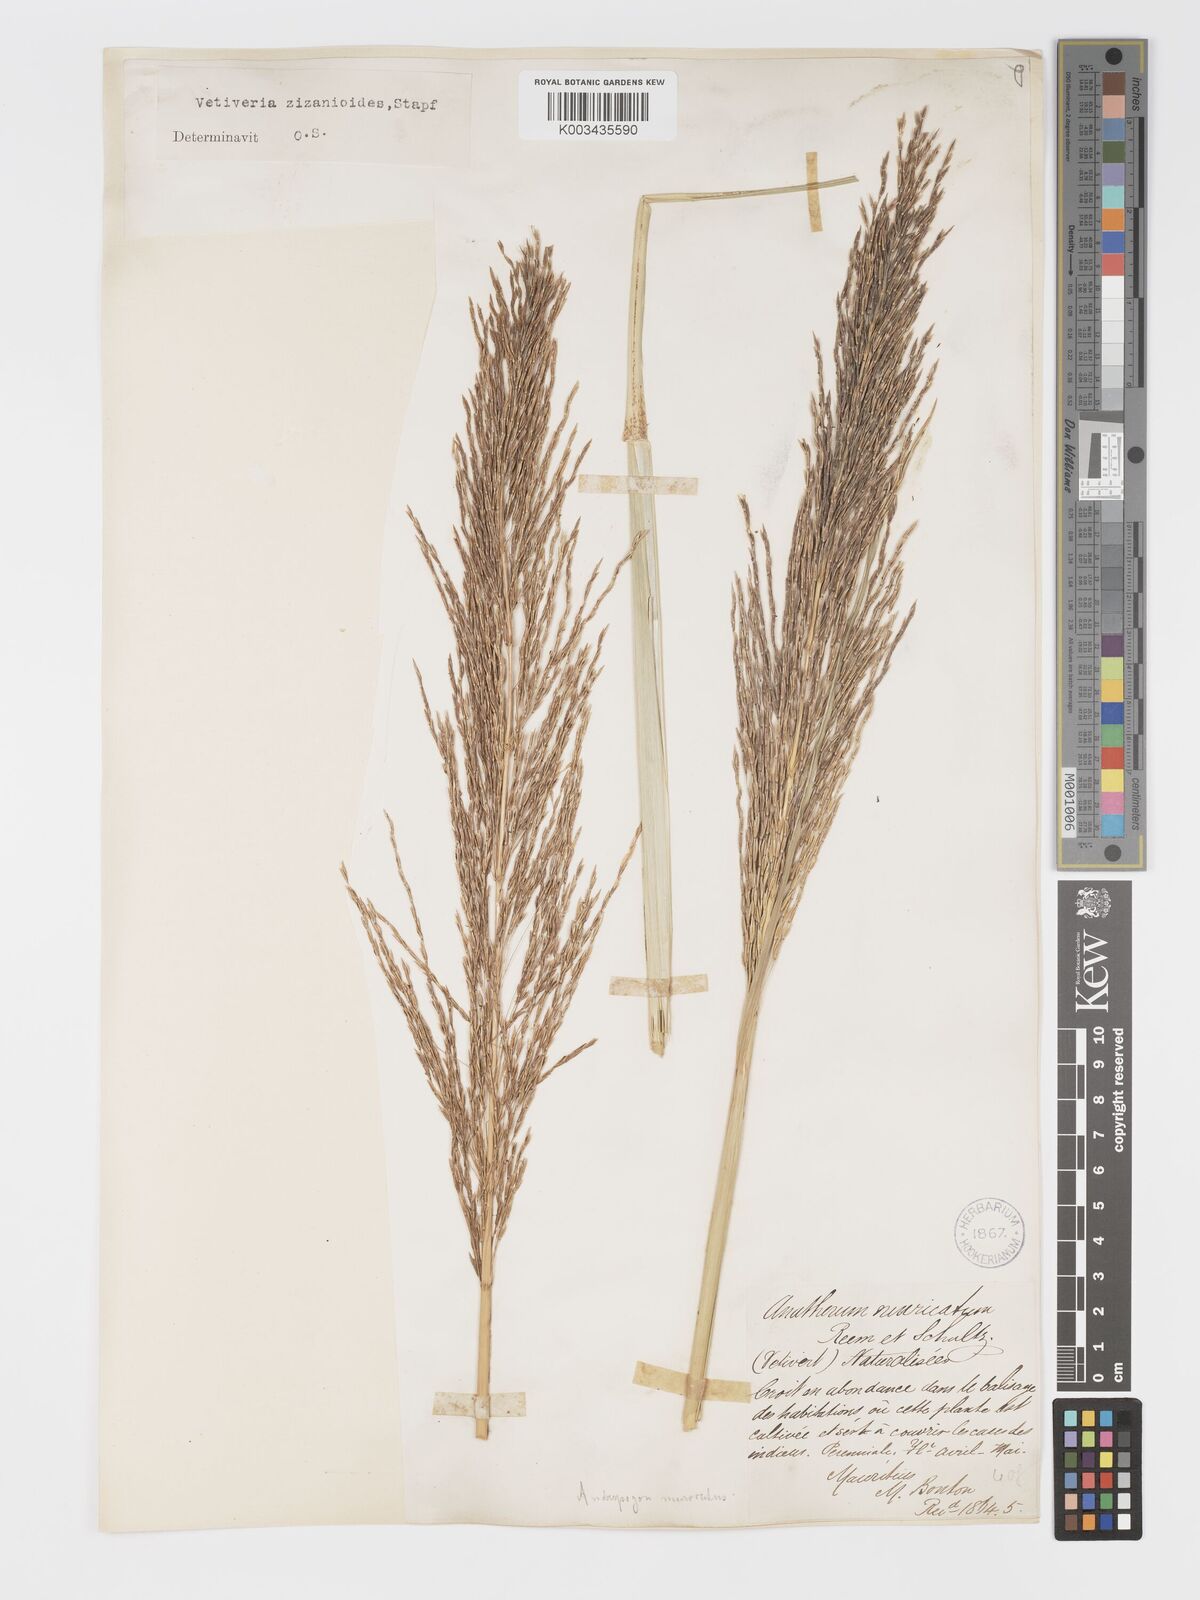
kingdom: Plantae
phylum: Tracheophyta
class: Liliopsida
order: Poales
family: Poaceae
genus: Chrysopogon
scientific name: Chrysopogon zizanioides
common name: False beardgrass
